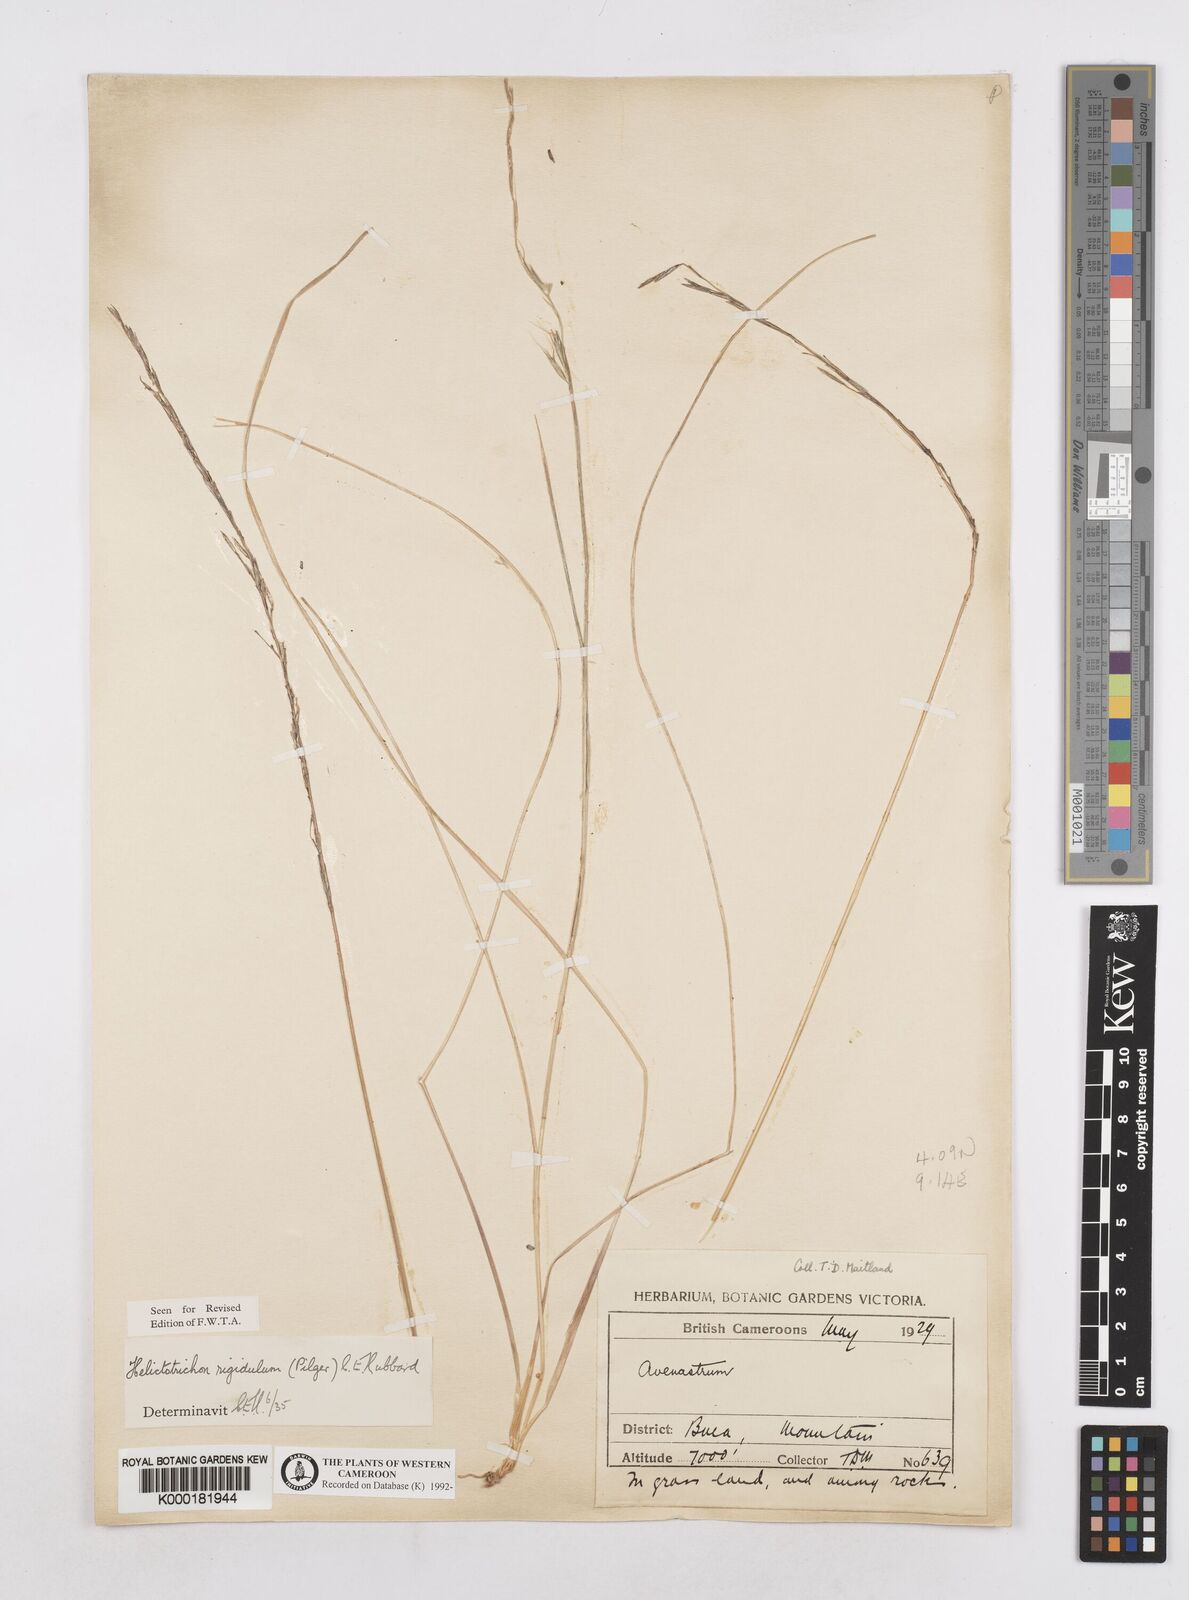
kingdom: Plantae
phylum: Tracheophyta
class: Liliopsida
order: Poales
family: Poaceae
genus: Trisetopsis
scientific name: Trisetopsis elongata
